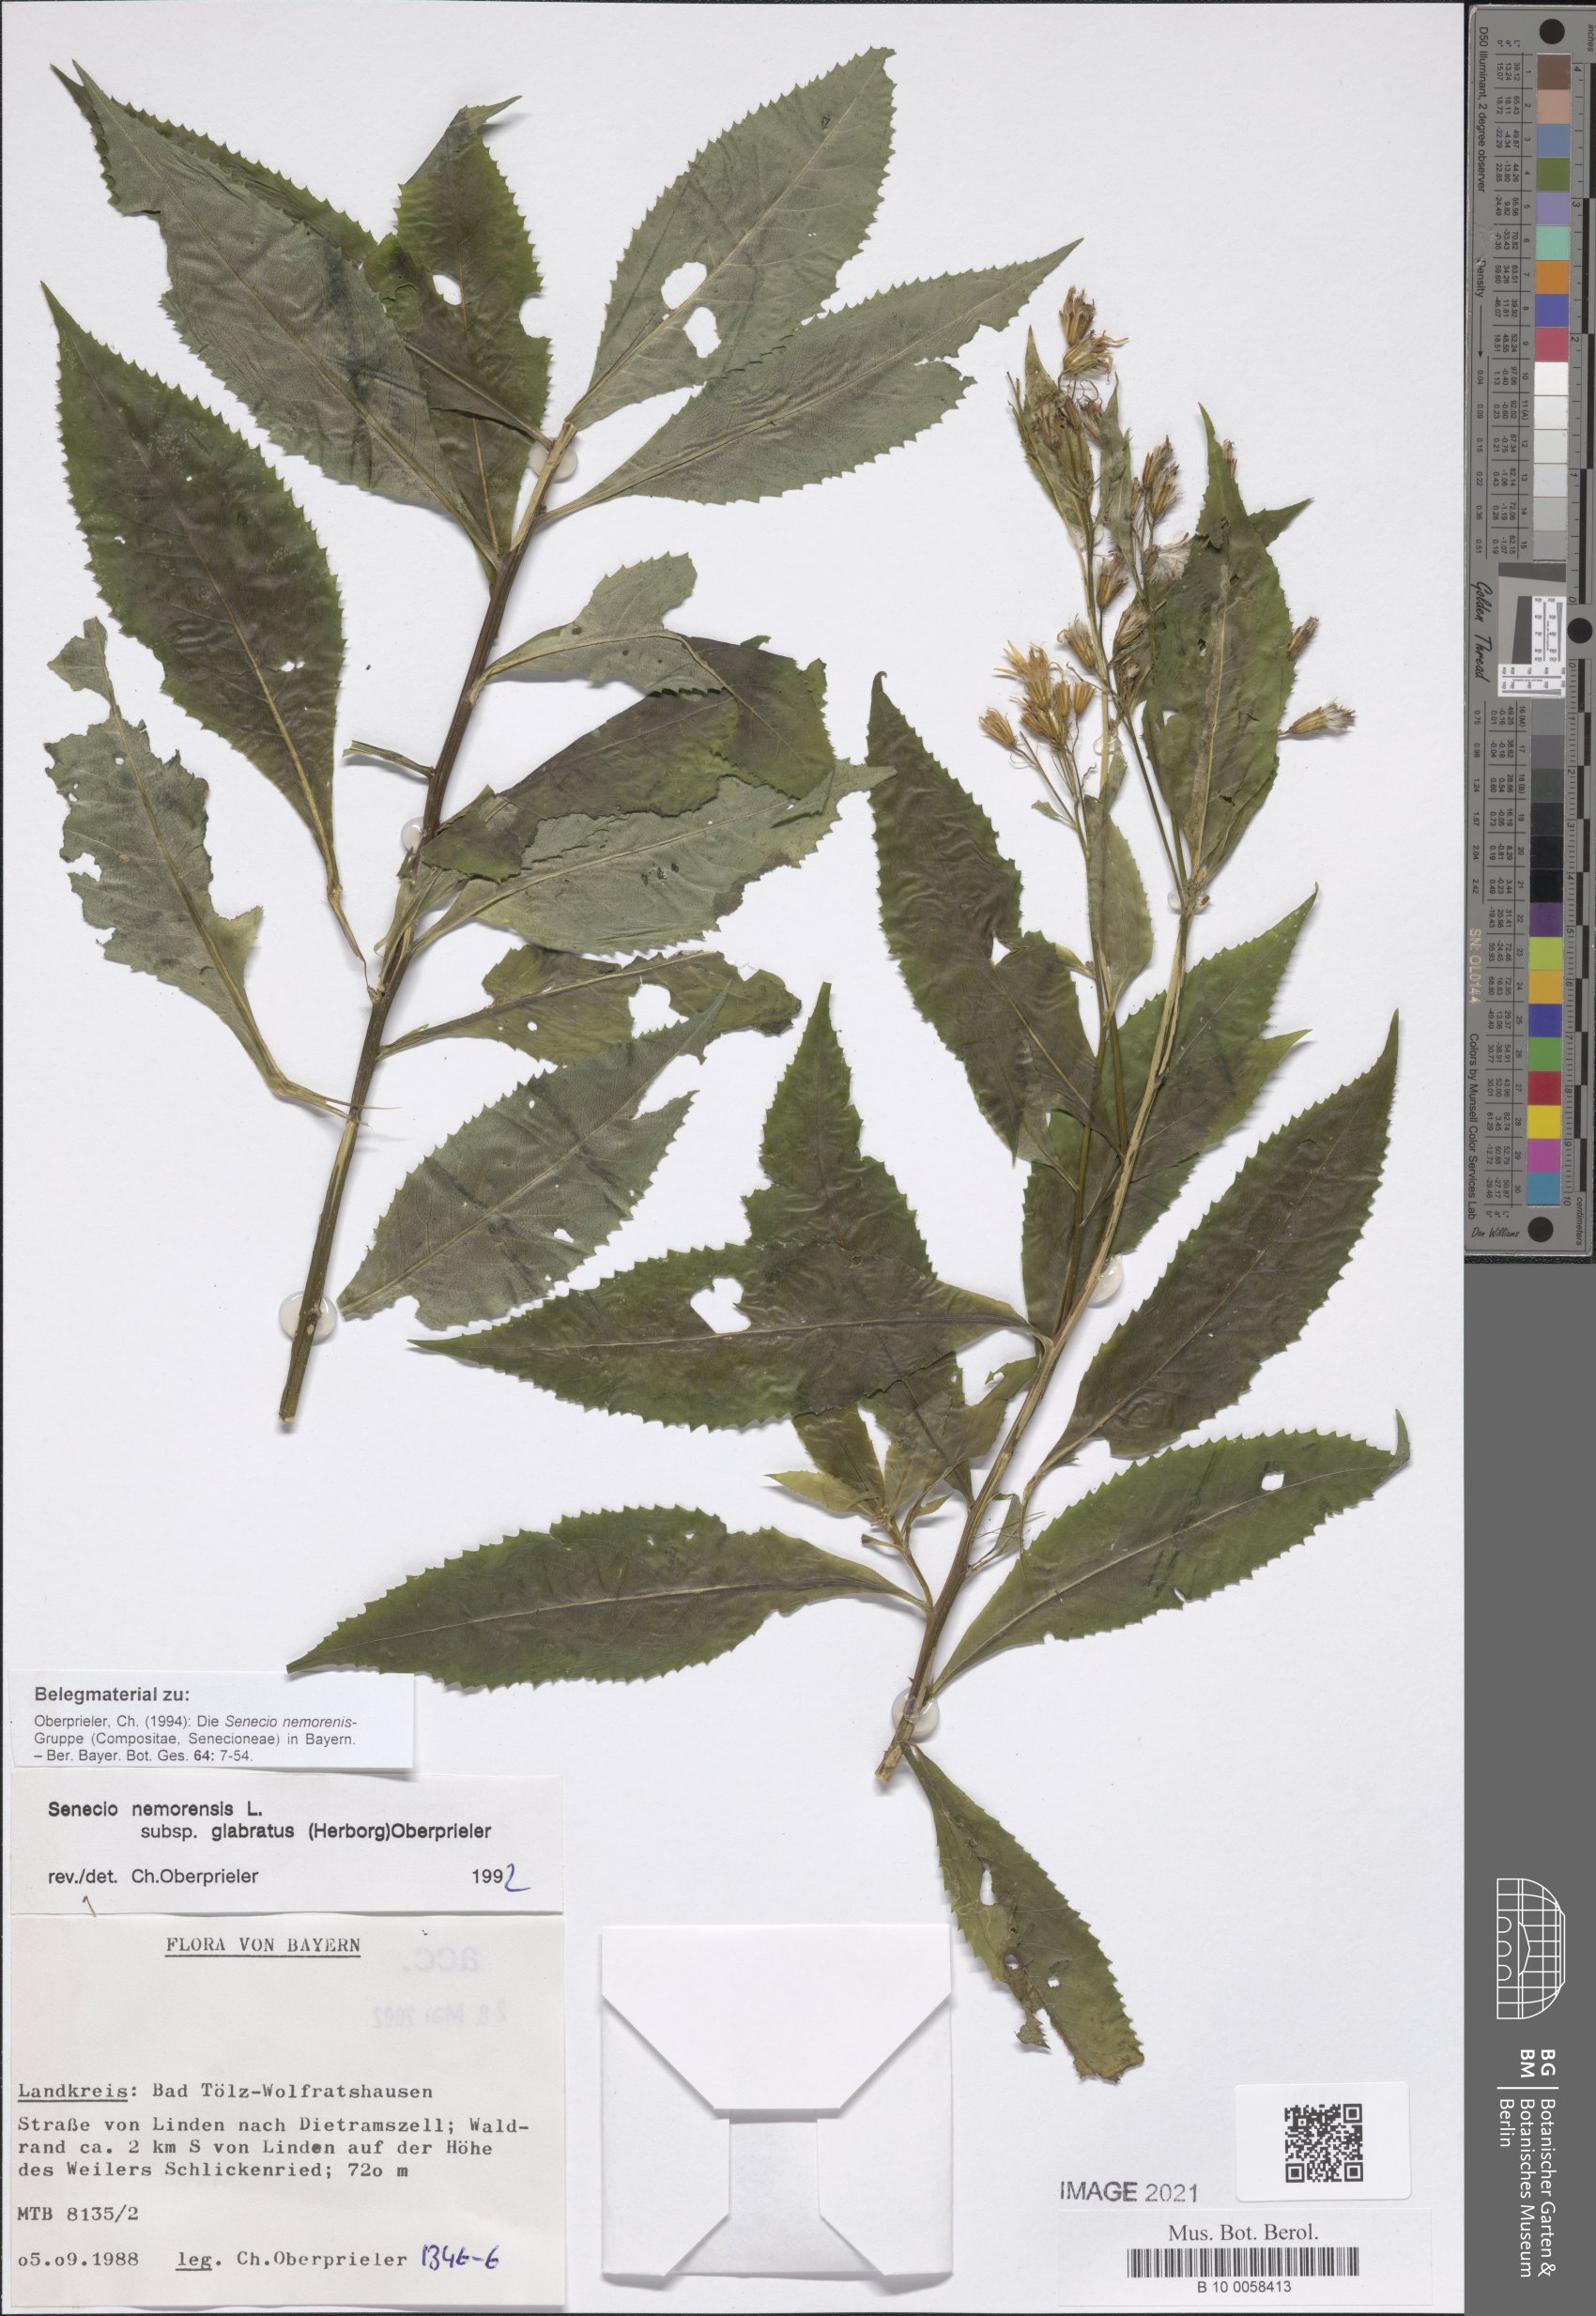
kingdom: Plantae
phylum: Tracheophyta
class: Magnoliopsida
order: Asterales
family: Asteraceae
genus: Senecio
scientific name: Senecio germanicus
